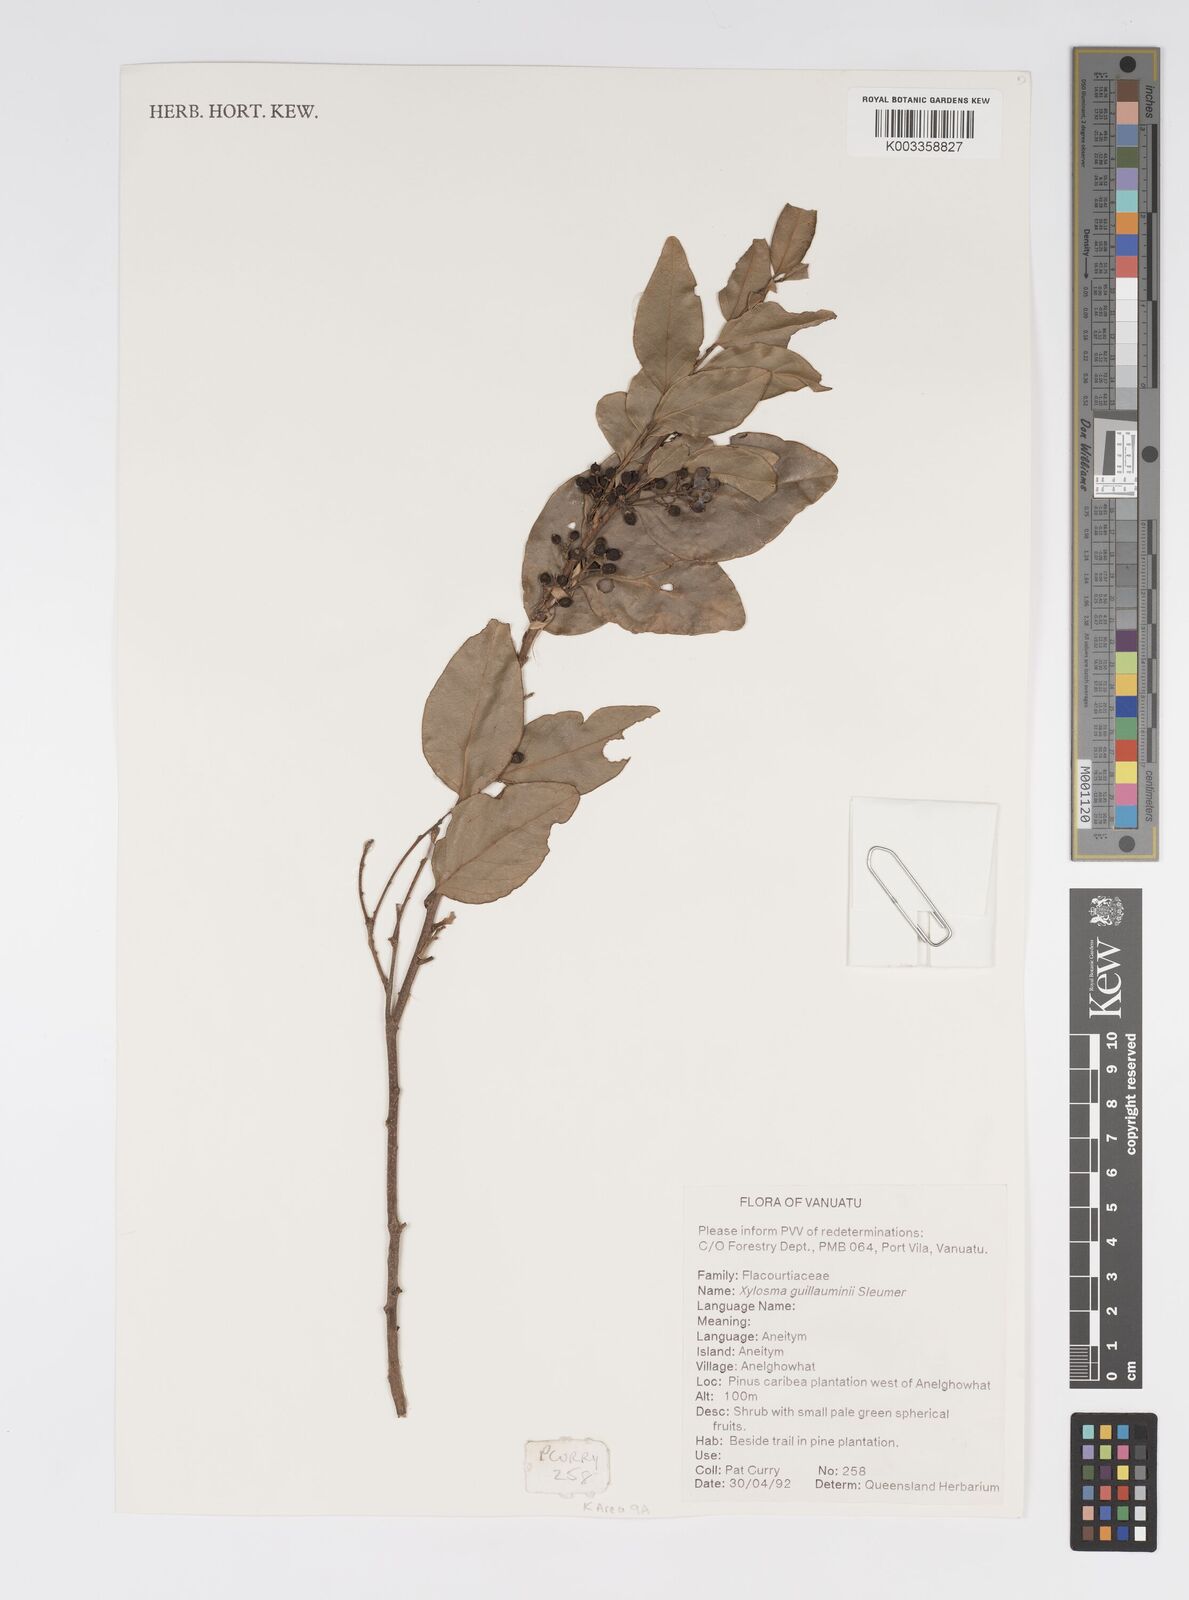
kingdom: Plantae
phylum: Tracheophyta
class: Magnoliopsida
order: Malpighiales
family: Salicaceae
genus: Xylosma
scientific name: Xylosma lifuana
